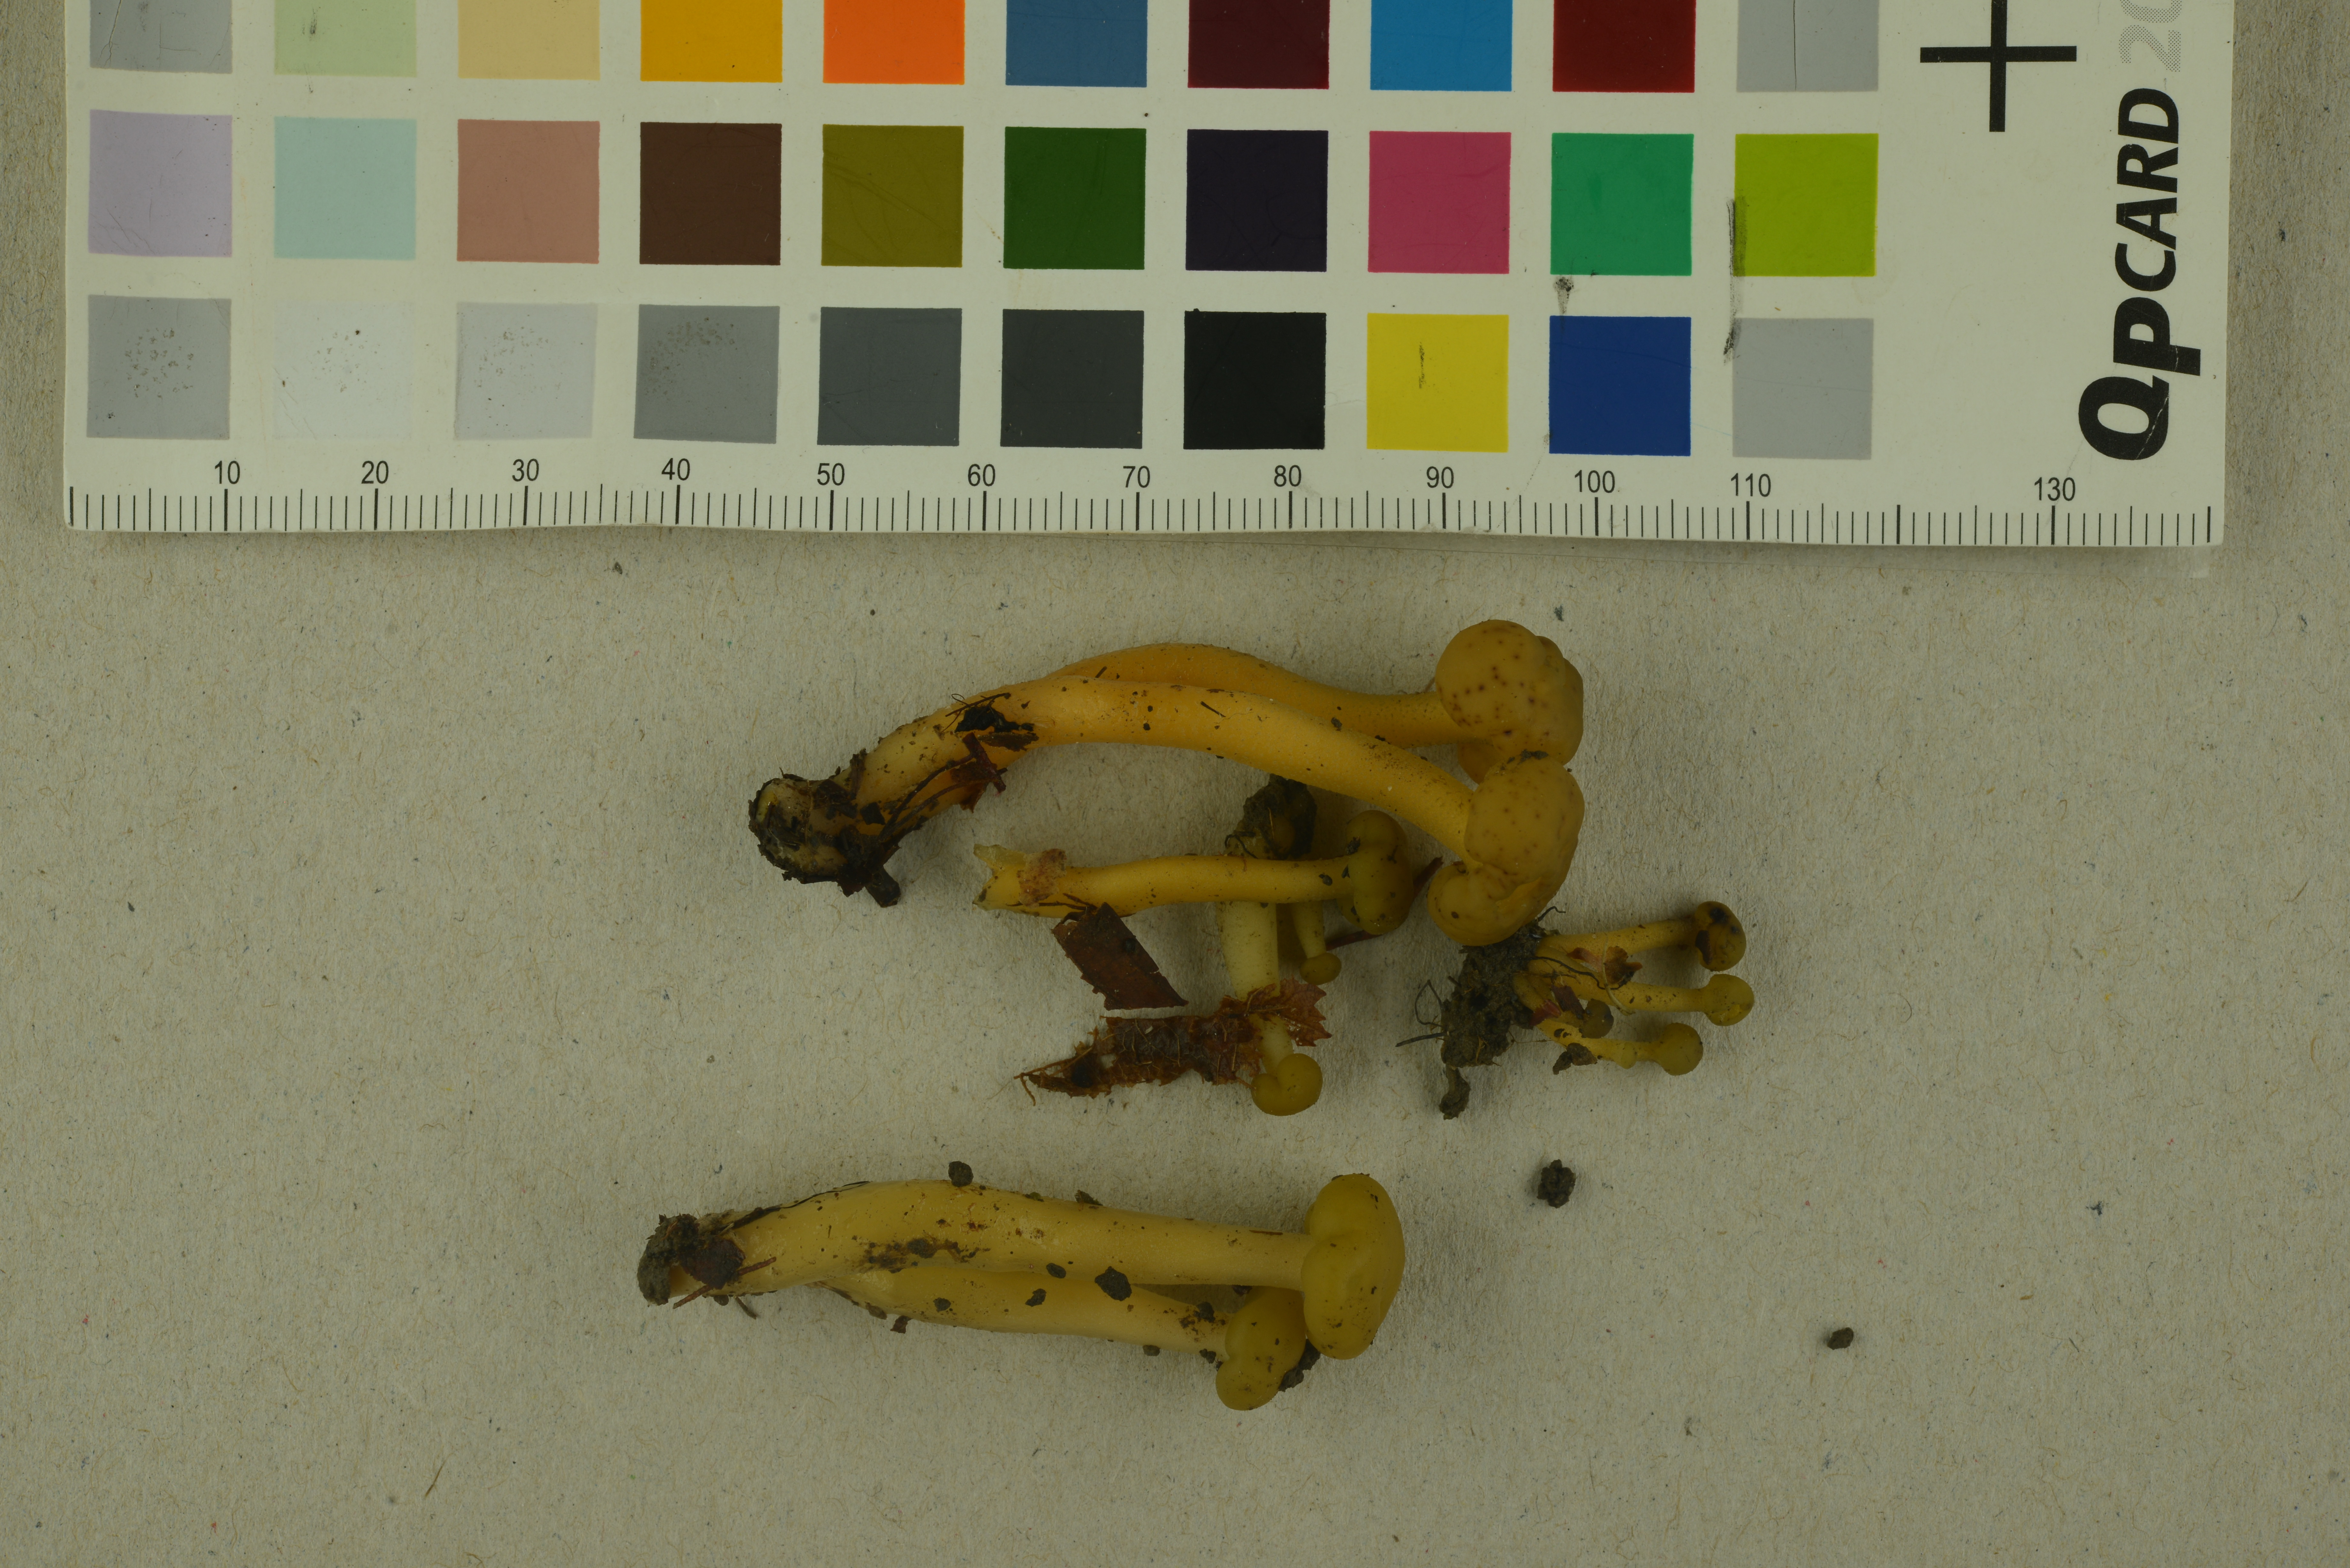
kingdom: Fungi
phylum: Ascomycota
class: Leotiomycetes
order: Leotiales
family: Leotiaceae
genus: Leotia
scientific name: Leotia lubrica
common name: Jellybaby
